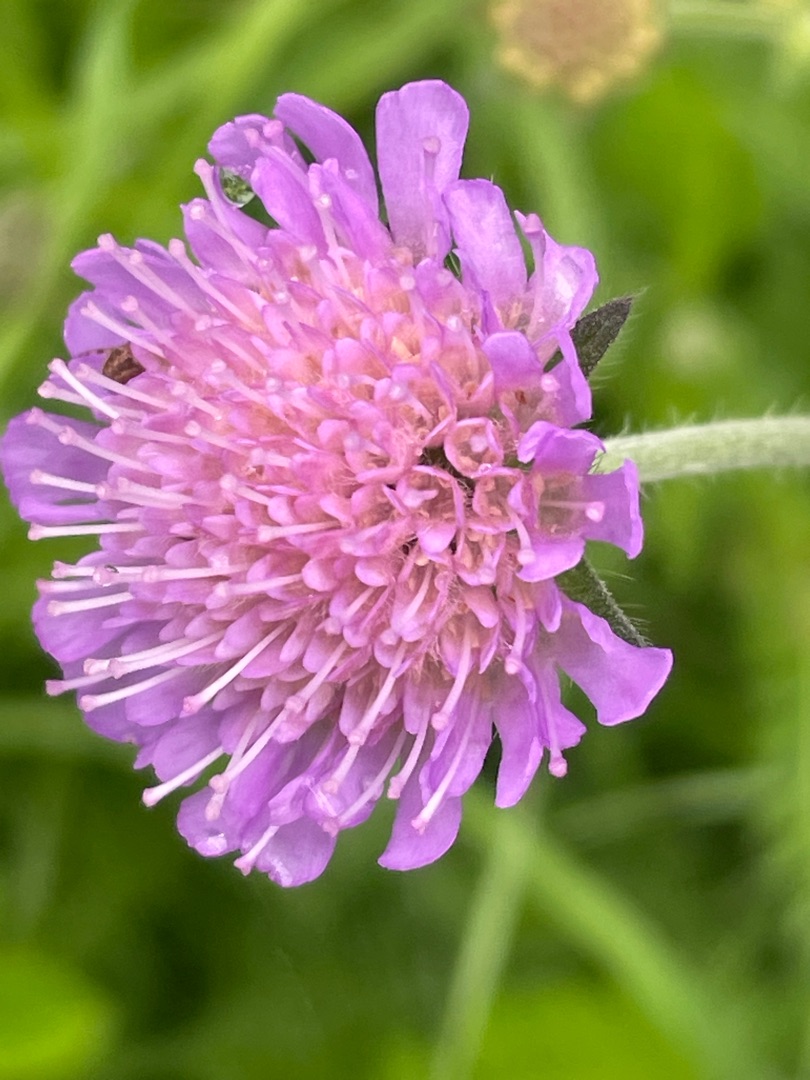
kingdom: Plantae
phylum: Tracheophyta
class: Magnoliopsida
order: Dipsacales
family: Caprifoliaceae
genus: Knautia
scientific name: Knautia arvensis
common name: Blåhat
